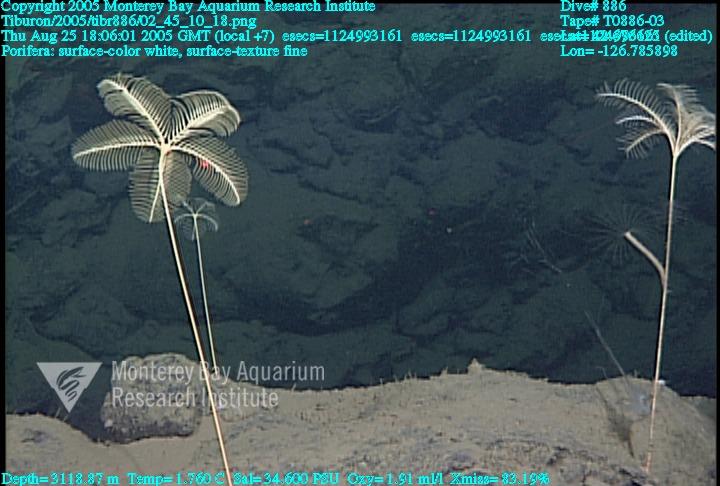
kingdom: Animalia
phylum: Porifera
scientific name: Porifera
